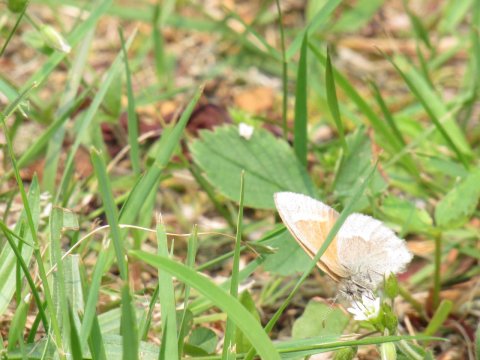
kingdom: Animalia
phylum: Arthropoda
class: Insecta
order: Lepidoptera
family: Nymphalidae
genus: Coenonympha
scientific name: Coenonympha tullia
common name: Large Heath
